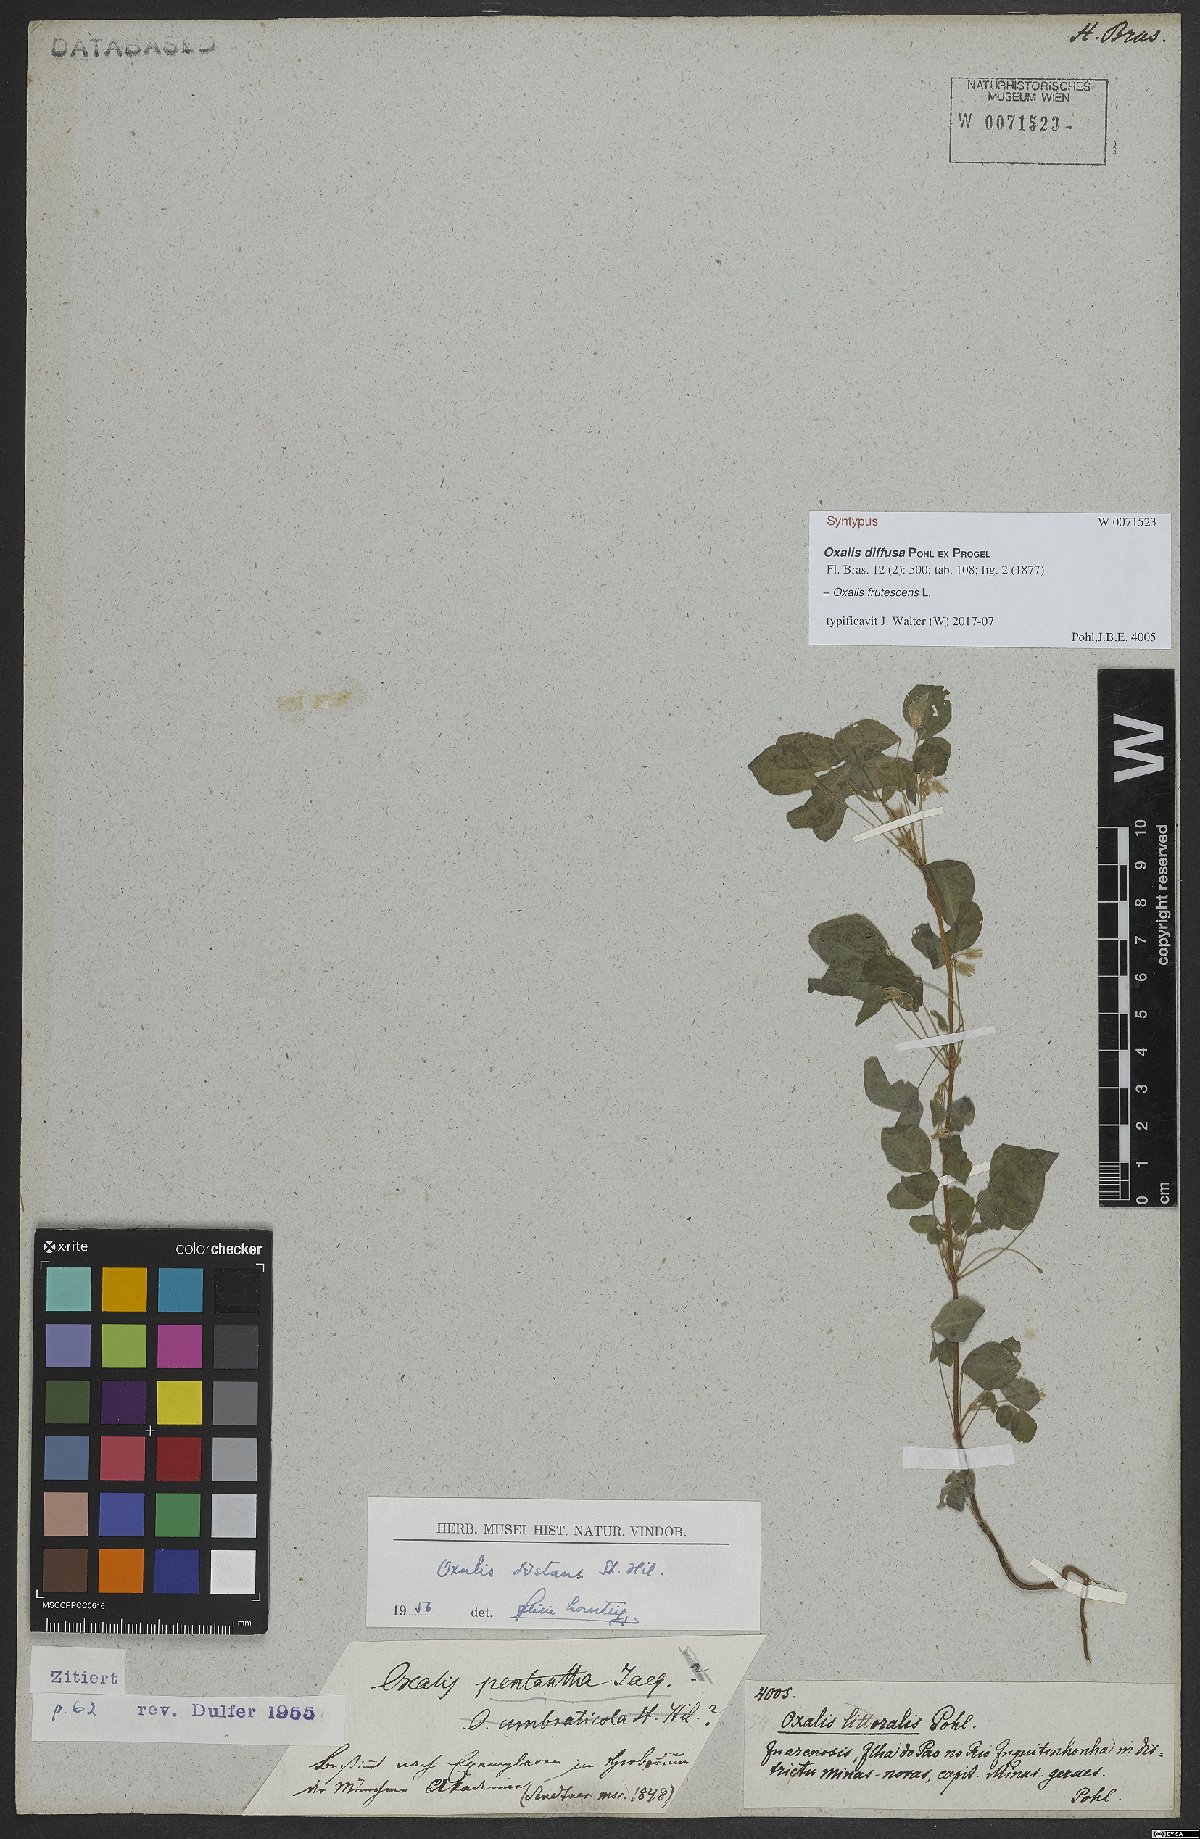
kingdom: Plantae
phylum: Tracheophyta
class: Magnoliopsida
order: Oxalidales
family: Oxalidaceae
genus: Oxalis
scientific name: Oxalis frutescens
